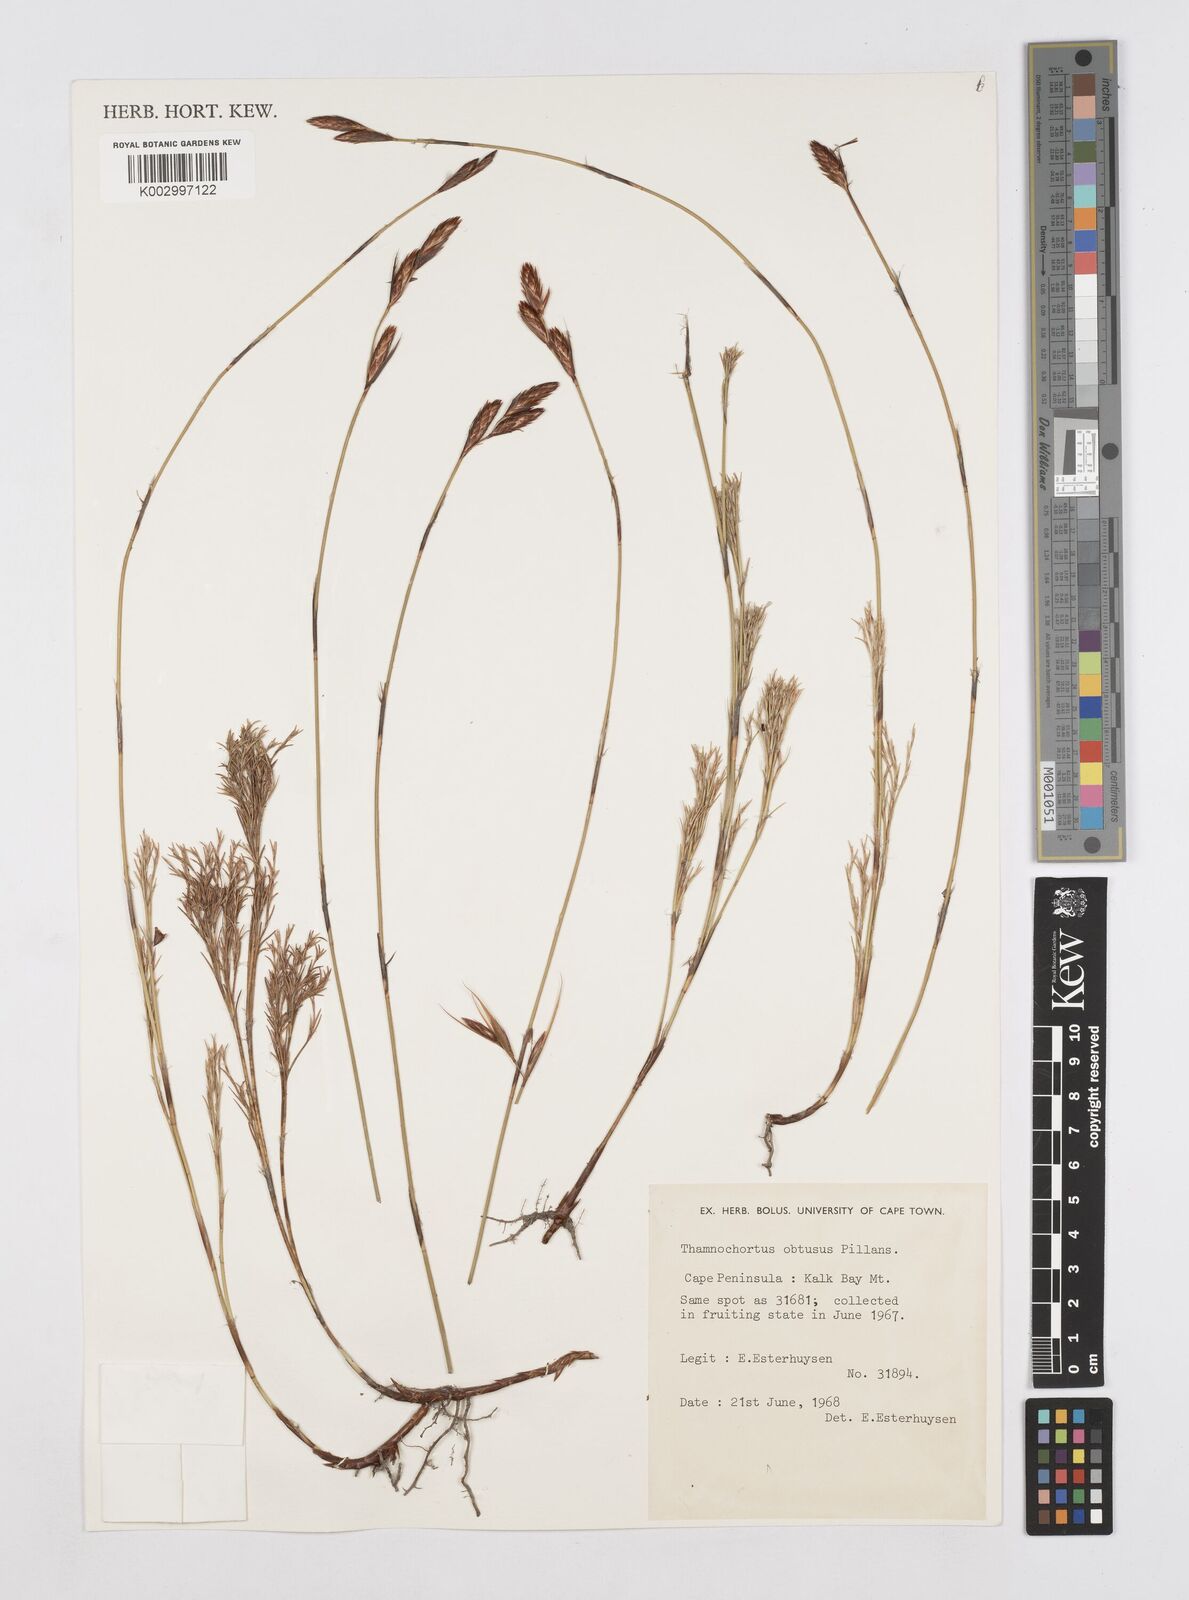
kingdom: Plantae
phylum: Tracheophyta
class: Liliopsida
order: Poales
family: Restionaceae
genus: Thamnochortus
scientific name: Thamnochortus obtusus
